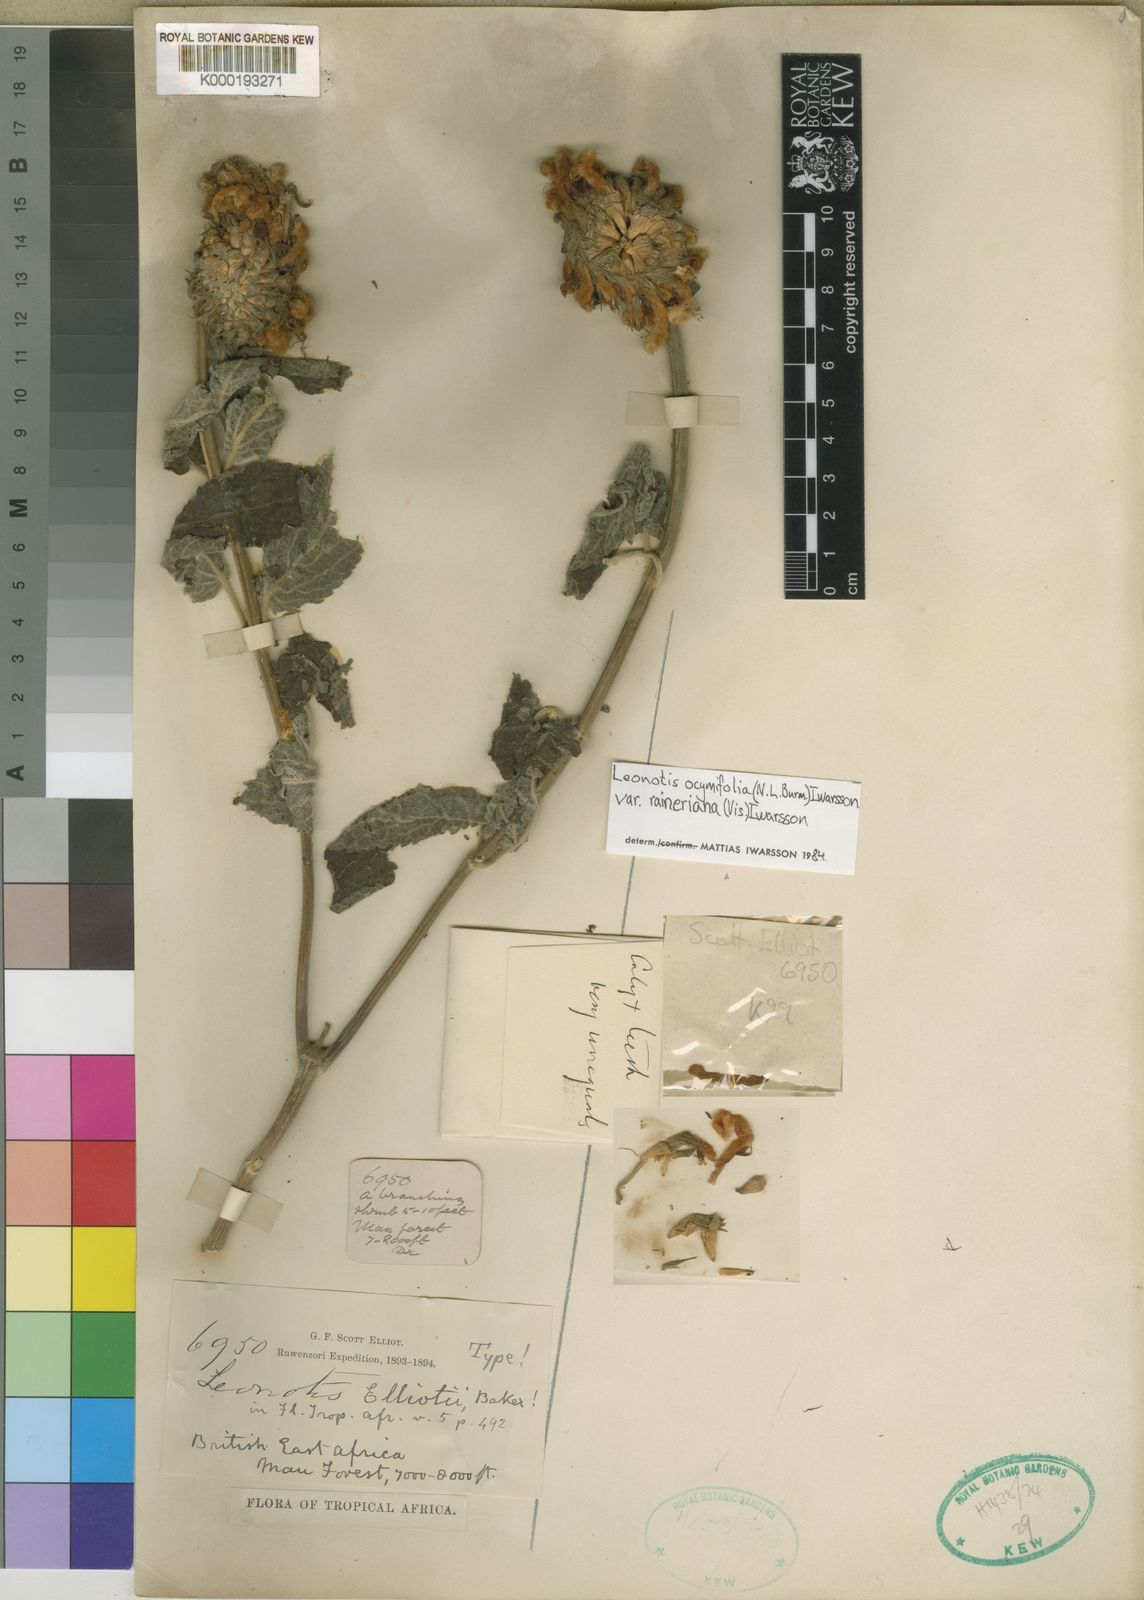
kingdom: Plantae
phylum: Tracheophyta
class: Magnoliopsida
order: Lamiales
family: Lamiaceae
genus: Leonotis
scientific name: Leonotis ocymifolia
